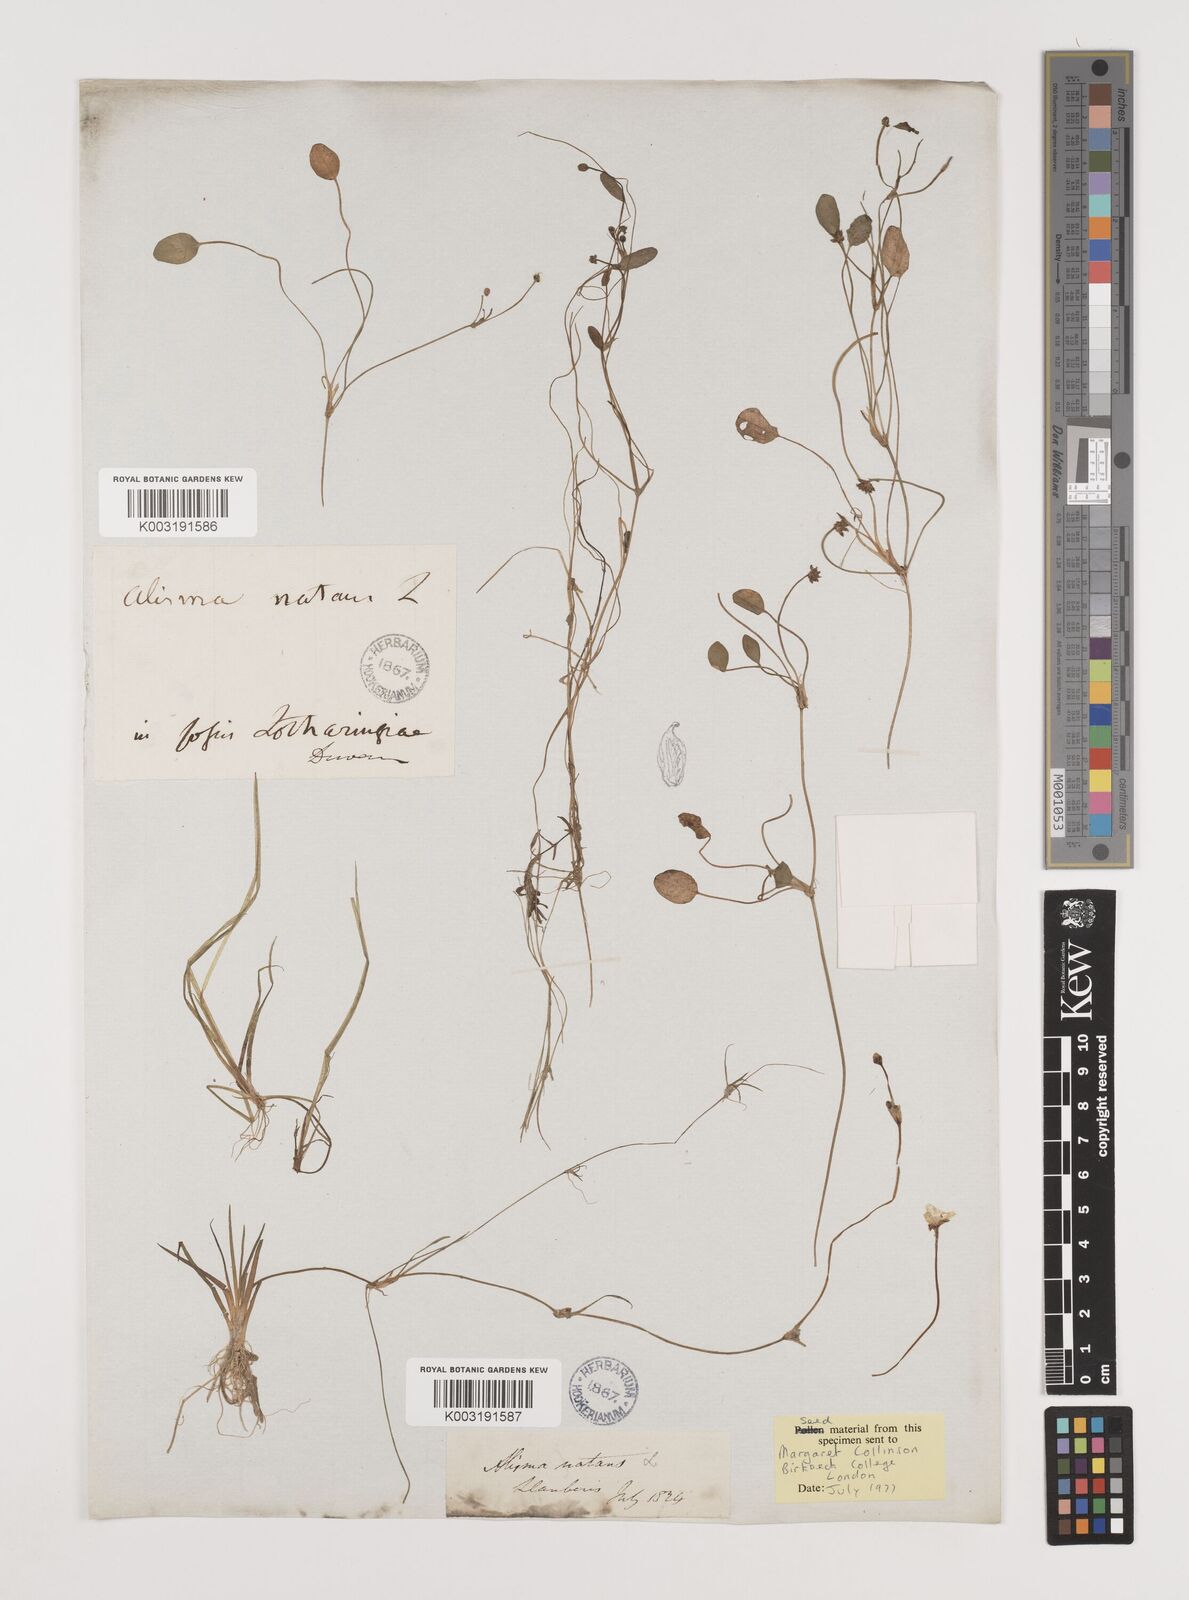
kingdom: Plantae
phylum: Tracheophyta
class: Liliopsida
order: Alismatales
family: Alismataceae
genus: Luronium
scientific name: Luronium natans
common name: Floating water-plantain
